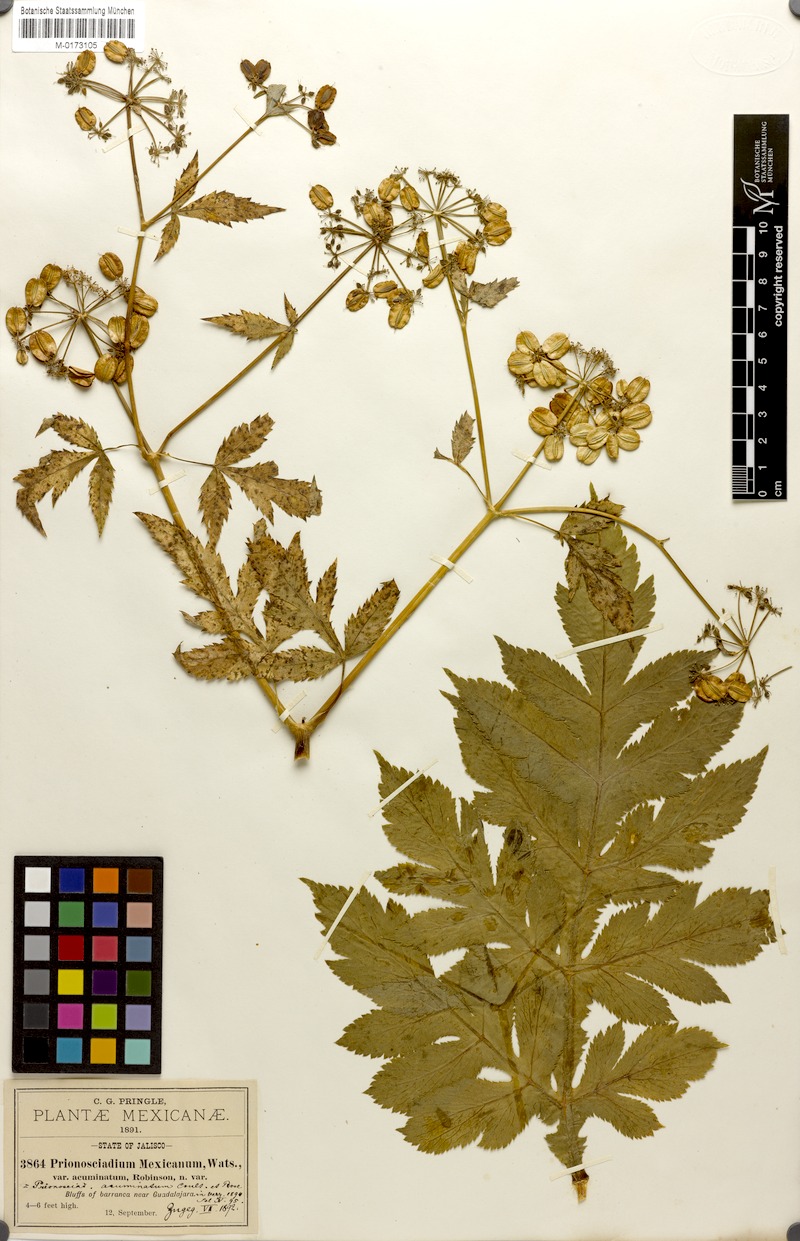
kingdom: Plantae
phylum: Tracheophyta
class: Magnoliopsida
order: Apiales
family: Apiaceae
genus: Prionosciadium
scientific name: Prionosciadium acuminatum
